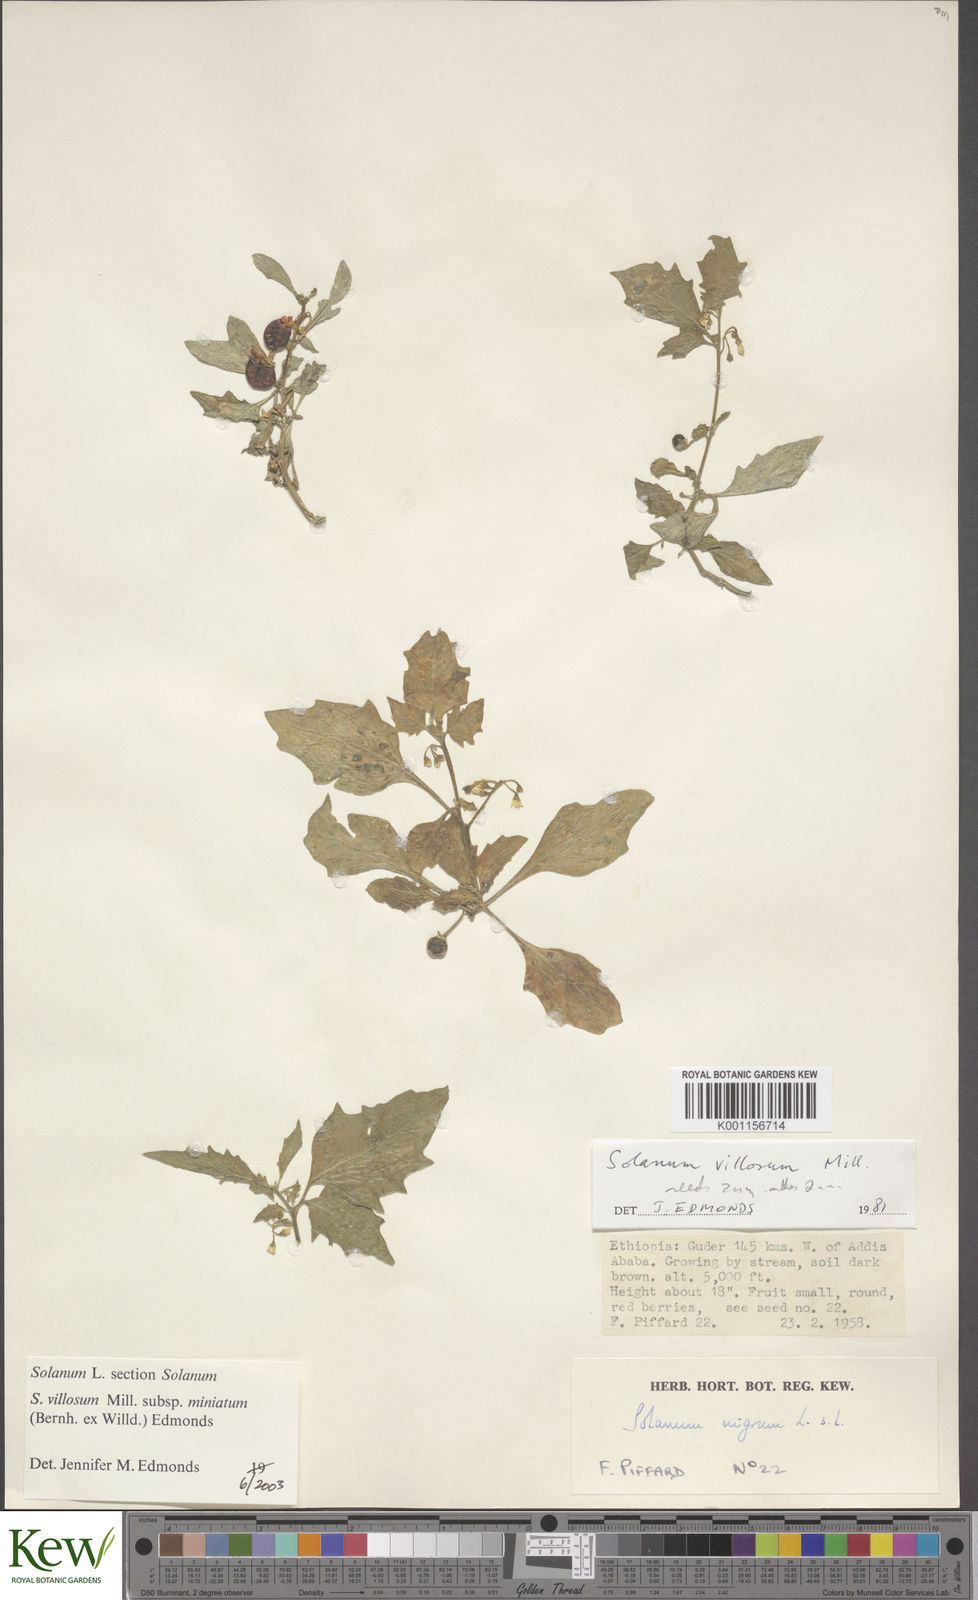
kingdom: Plantae
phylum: Tracheophyta
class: Magnoliopsida
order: Solanales
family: Solanaceae
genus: Solanum
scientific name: Solanum villosum
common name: Red nightshade
